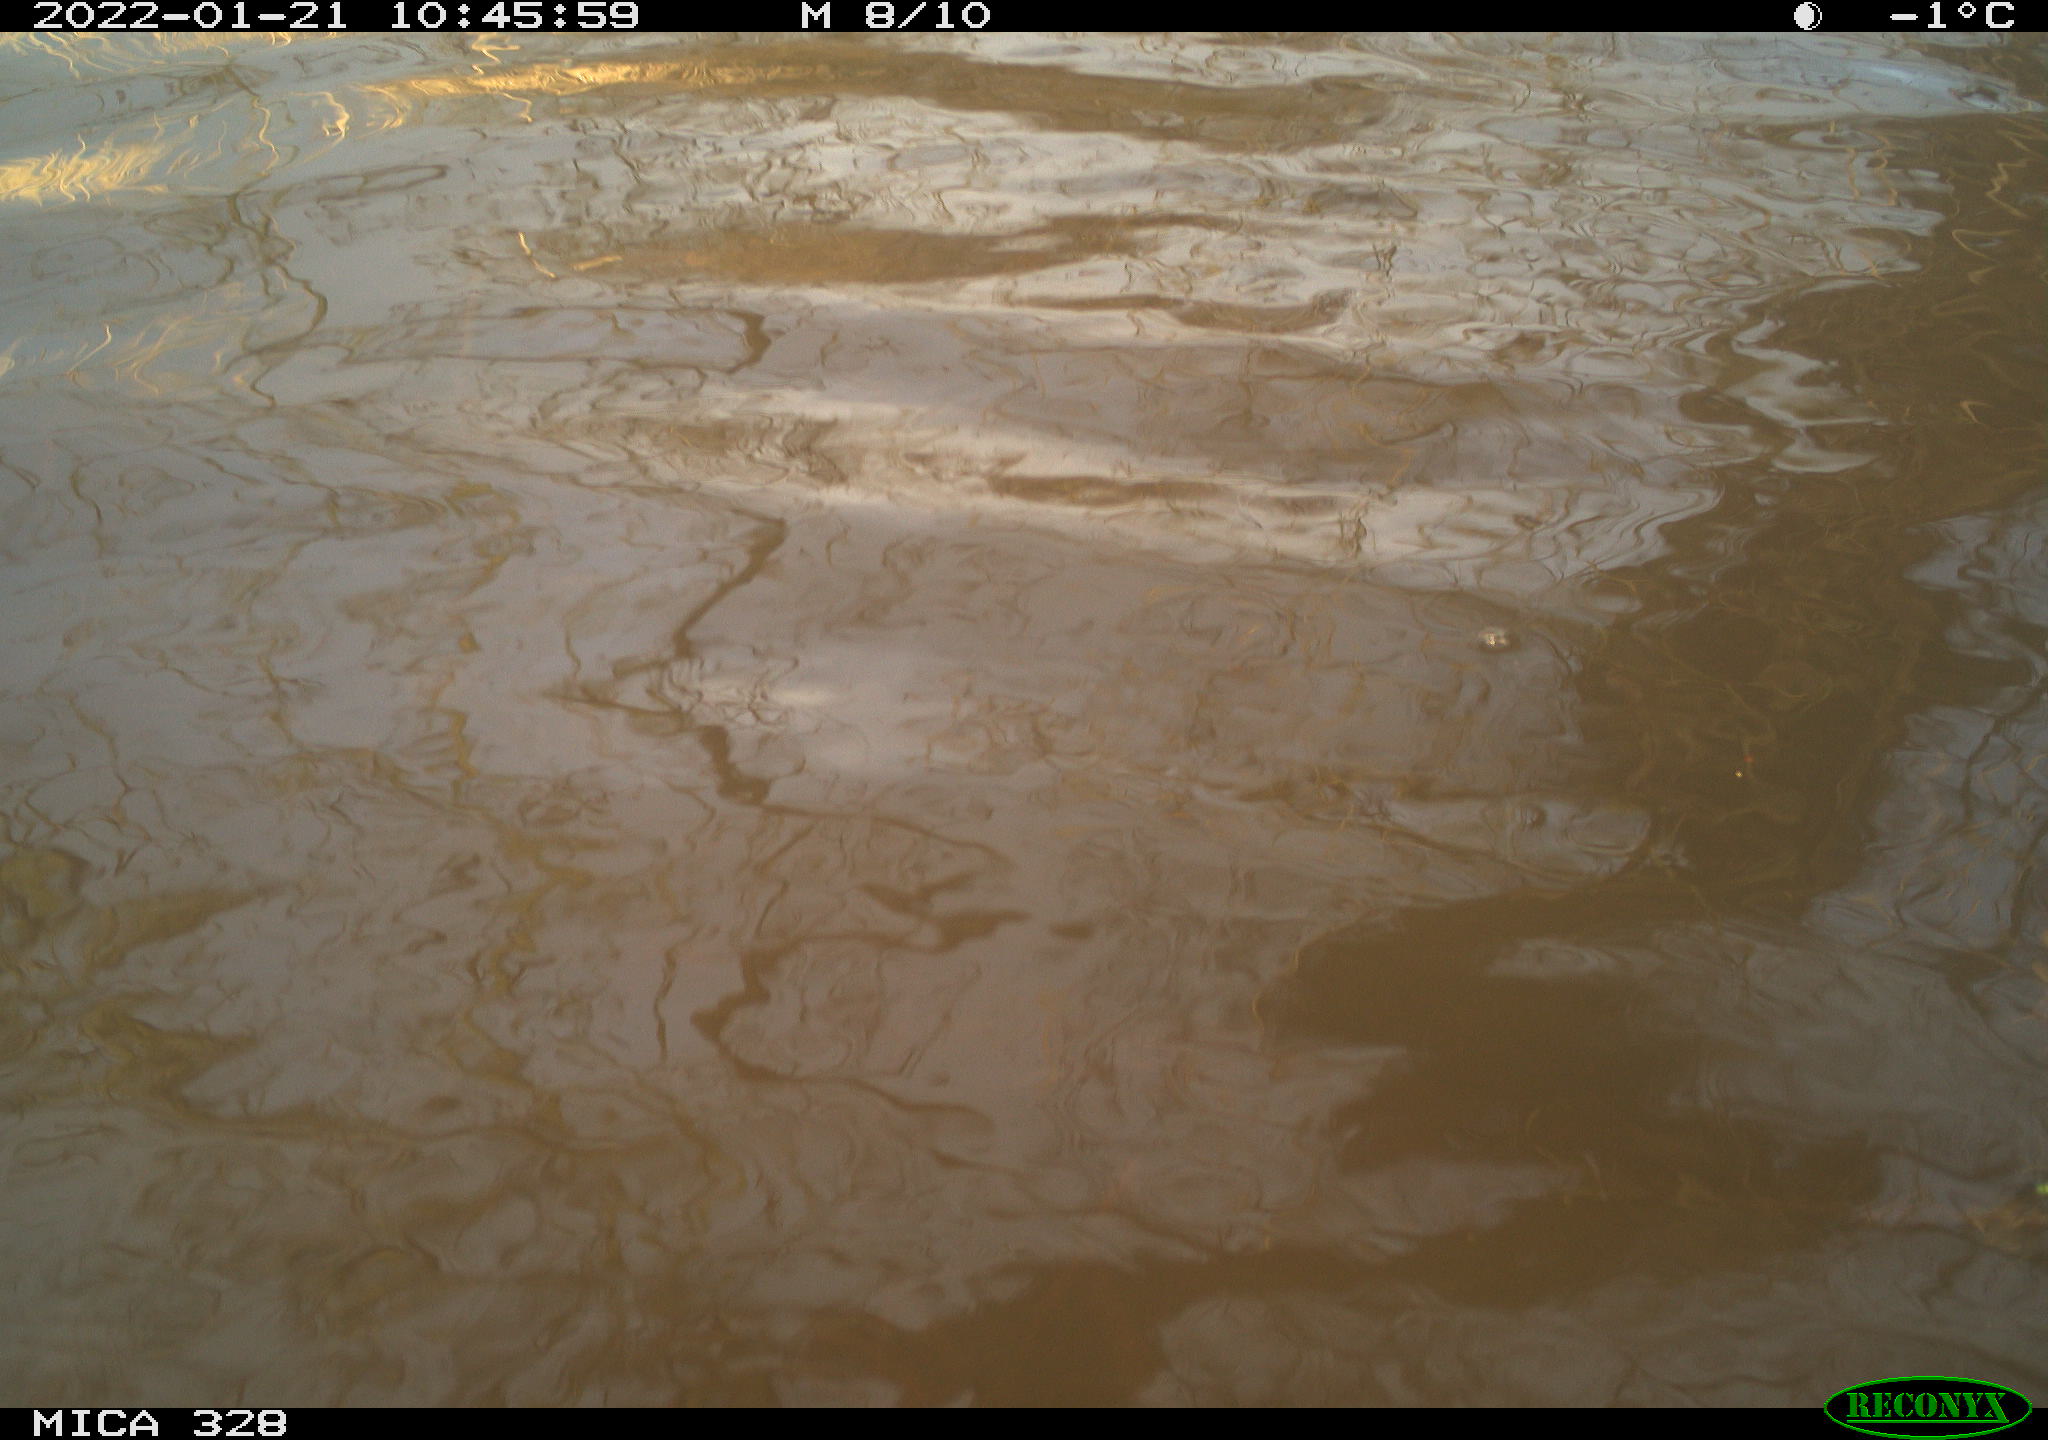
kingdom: Animalia
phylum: Chordata
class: Mammalia
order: Rodentia
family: Cricetidae
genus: Ondatra
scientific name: Ondatra zibethicus
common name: Muskrat
